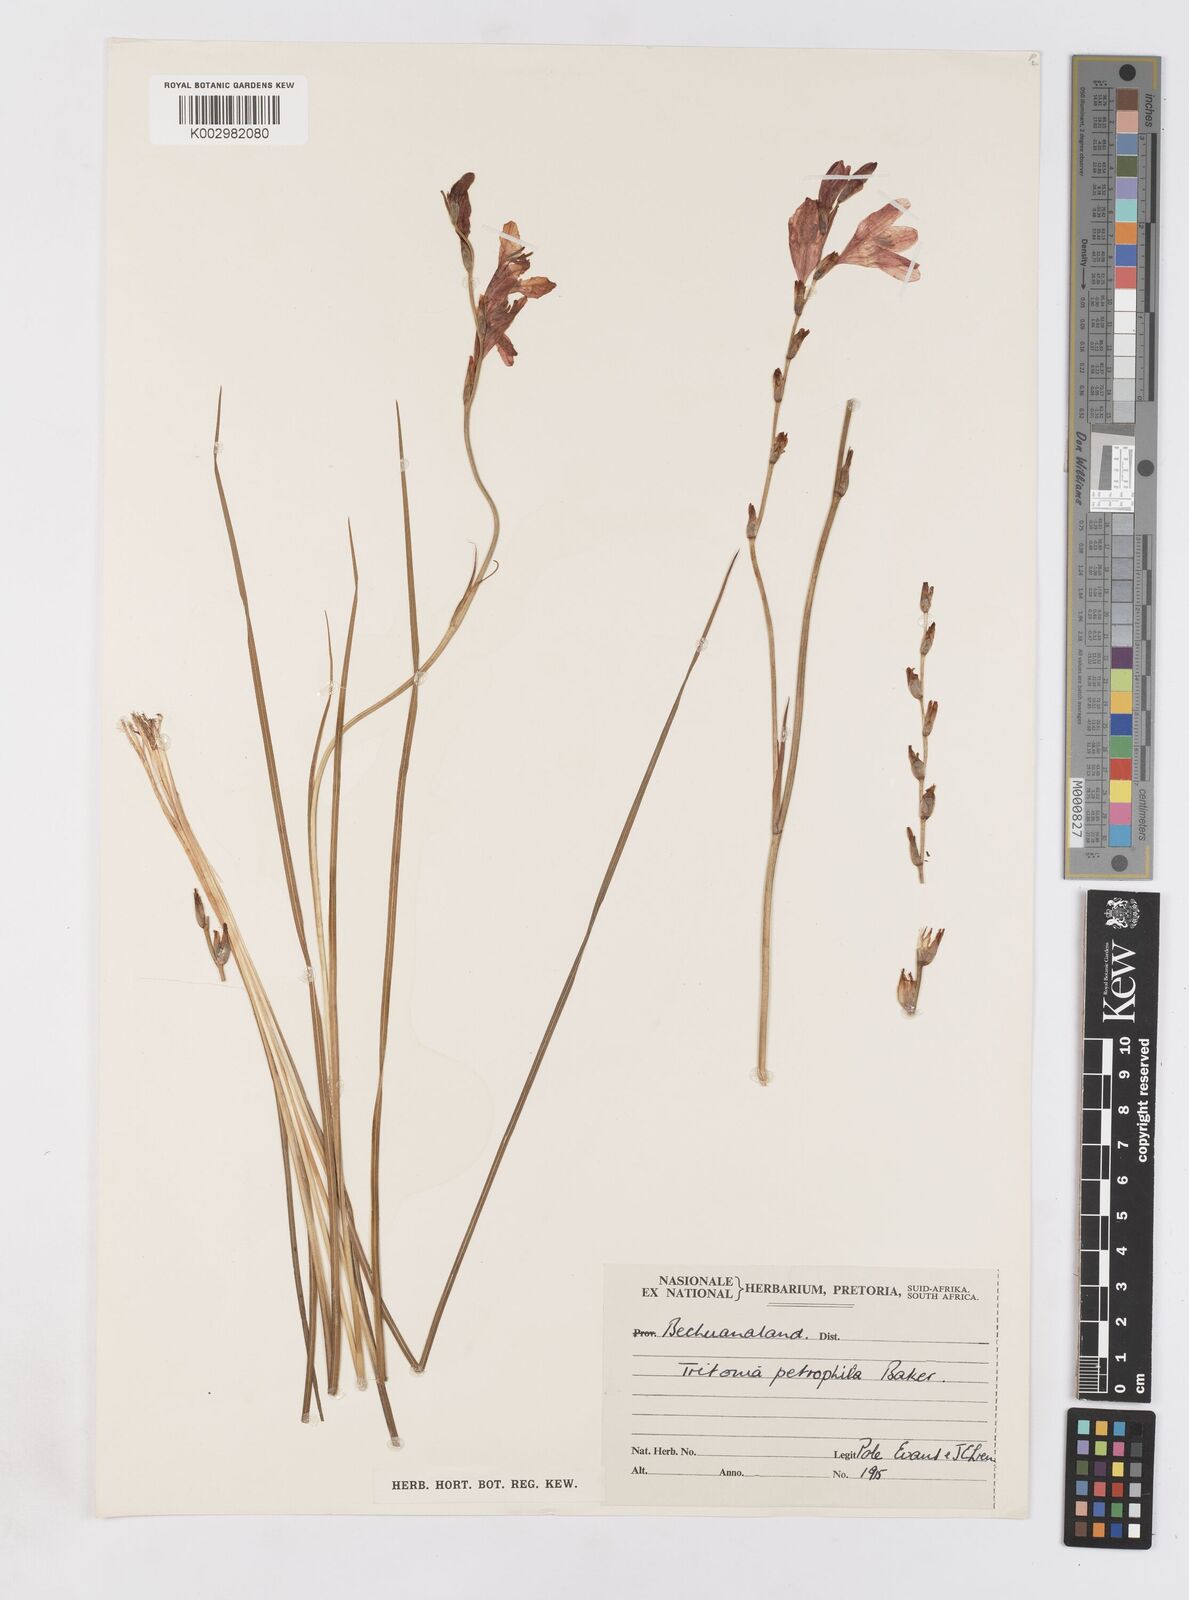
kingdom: Plantae
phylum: Tracheophyta
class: Liliopsida
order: Asparagales
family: Iridaceae
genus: Tritonia
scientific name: Tritonia nelsonii
